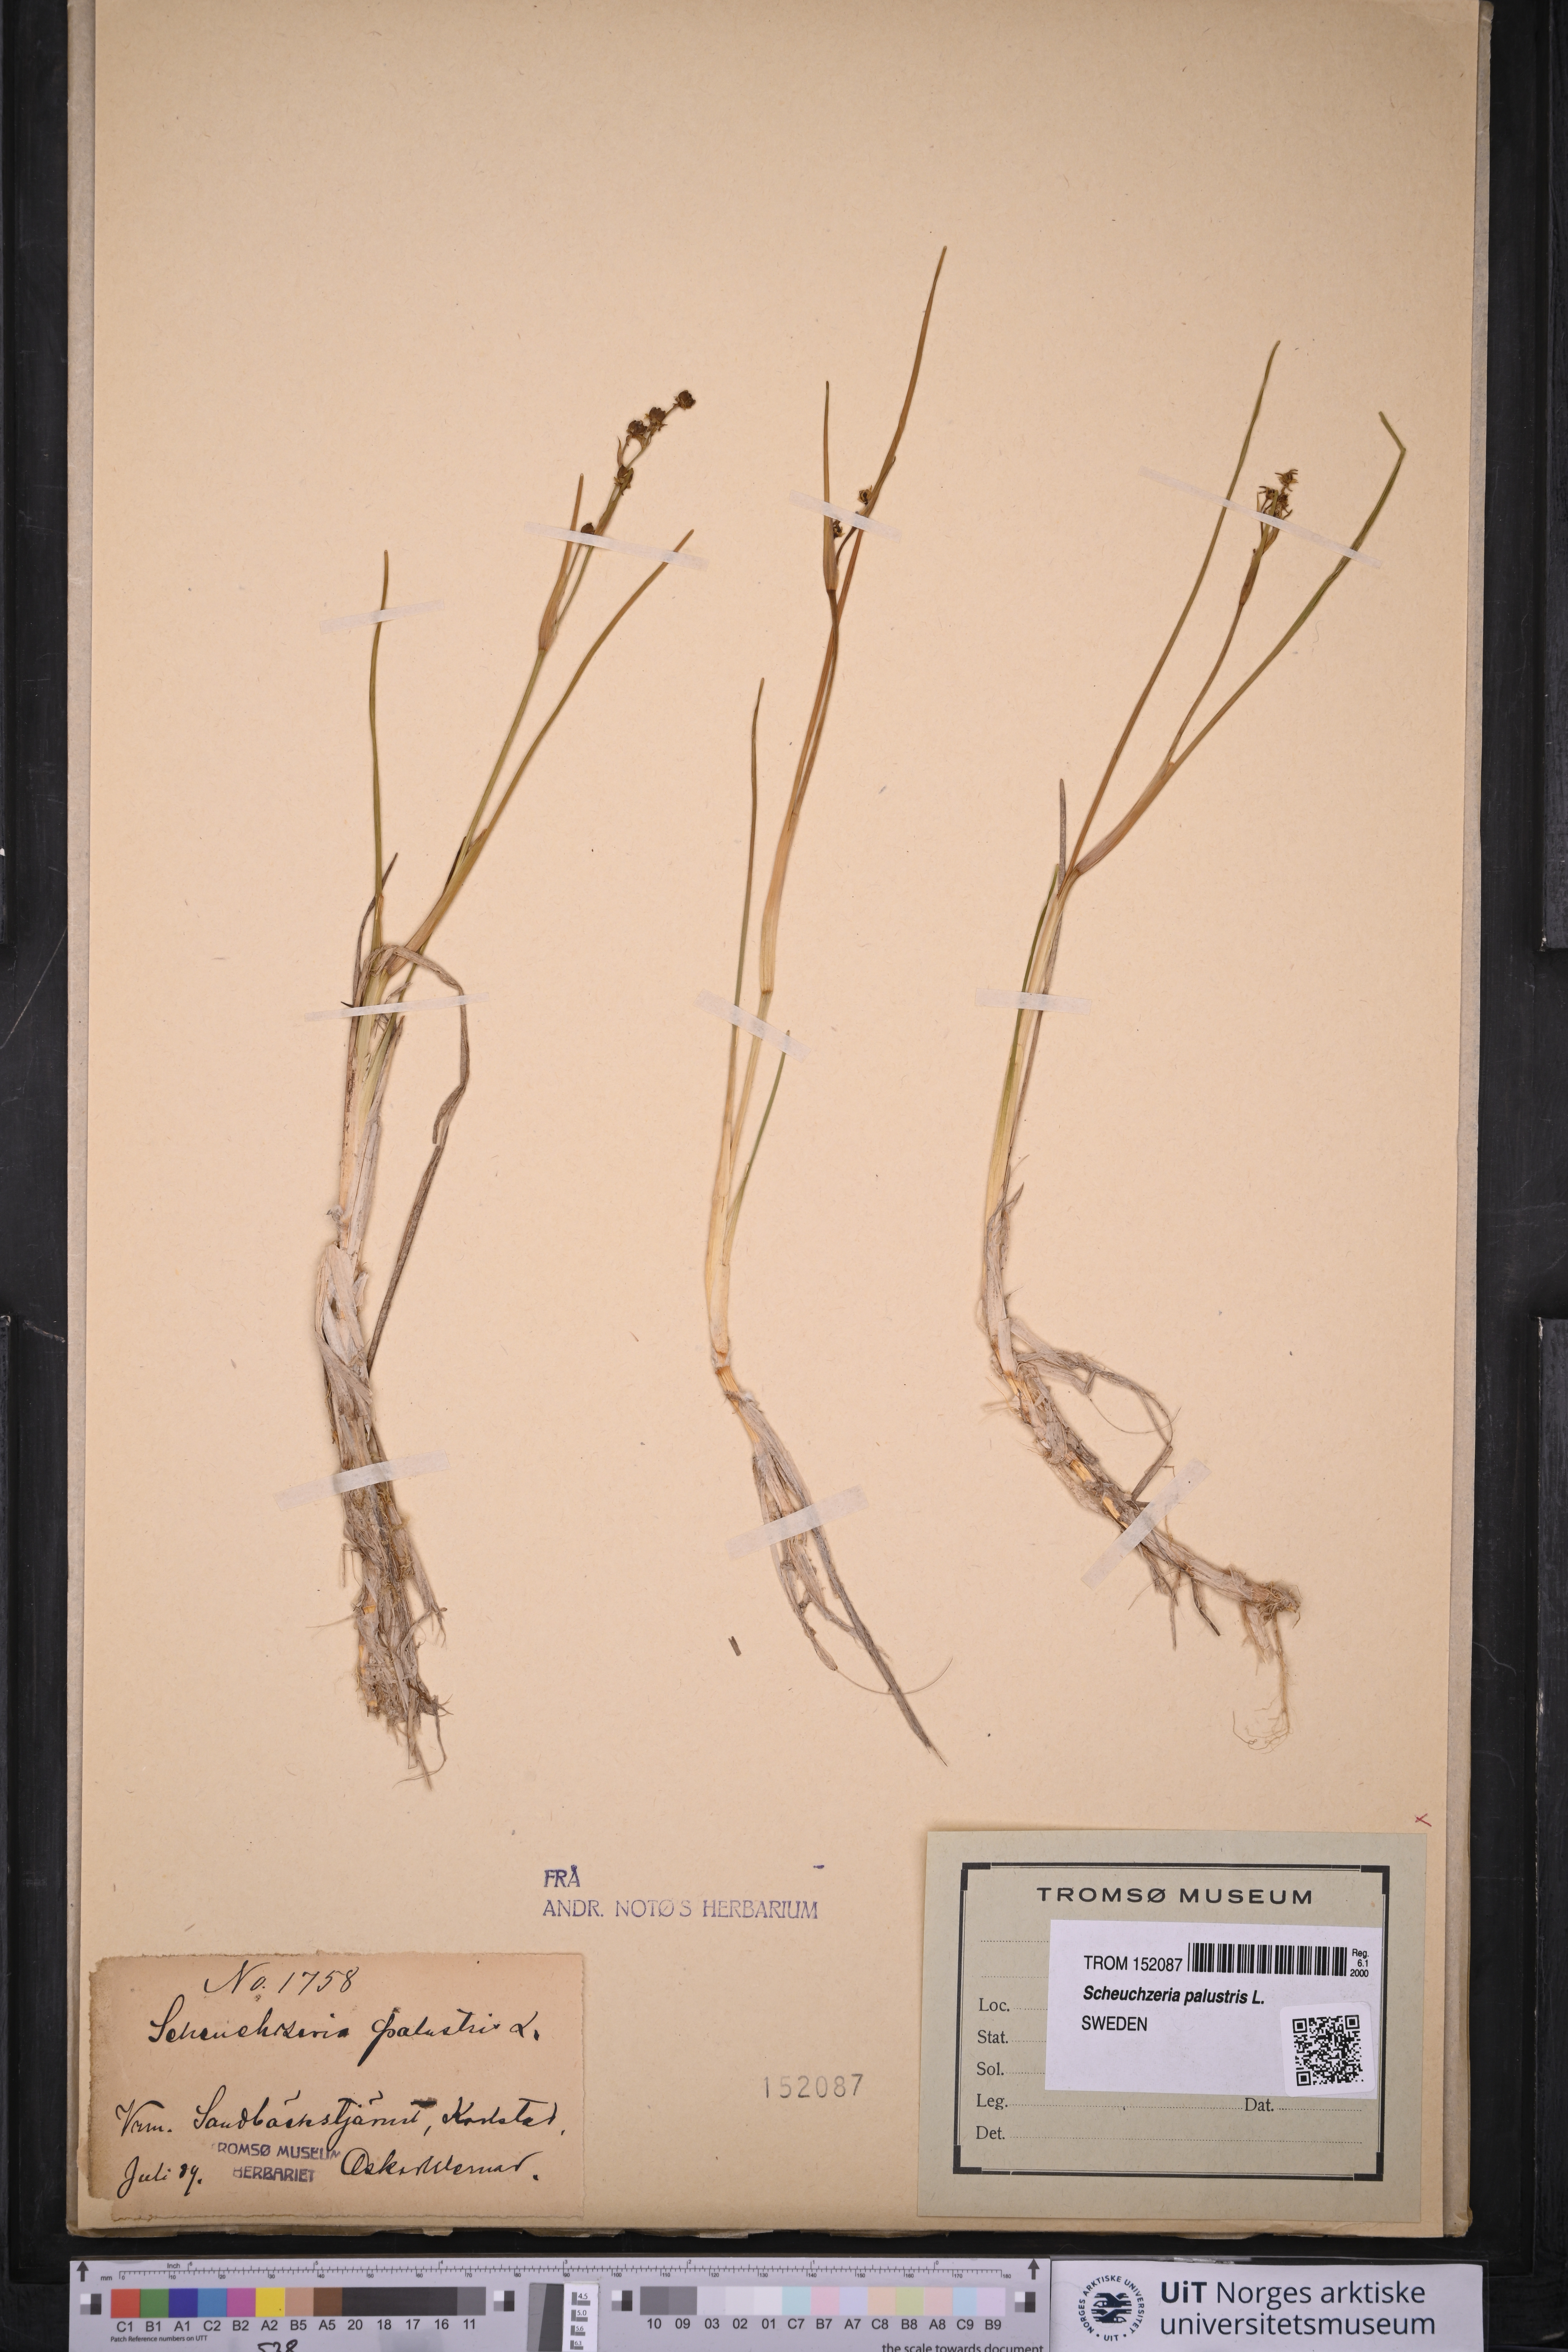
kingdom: Plantae
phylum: Tracheophyta
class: Liliopsida
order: Alismatales
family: Scheuchzeriaceae
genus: Scheuchzeria
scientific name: Scheuchzeria palustris
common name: Rannoch-rush
